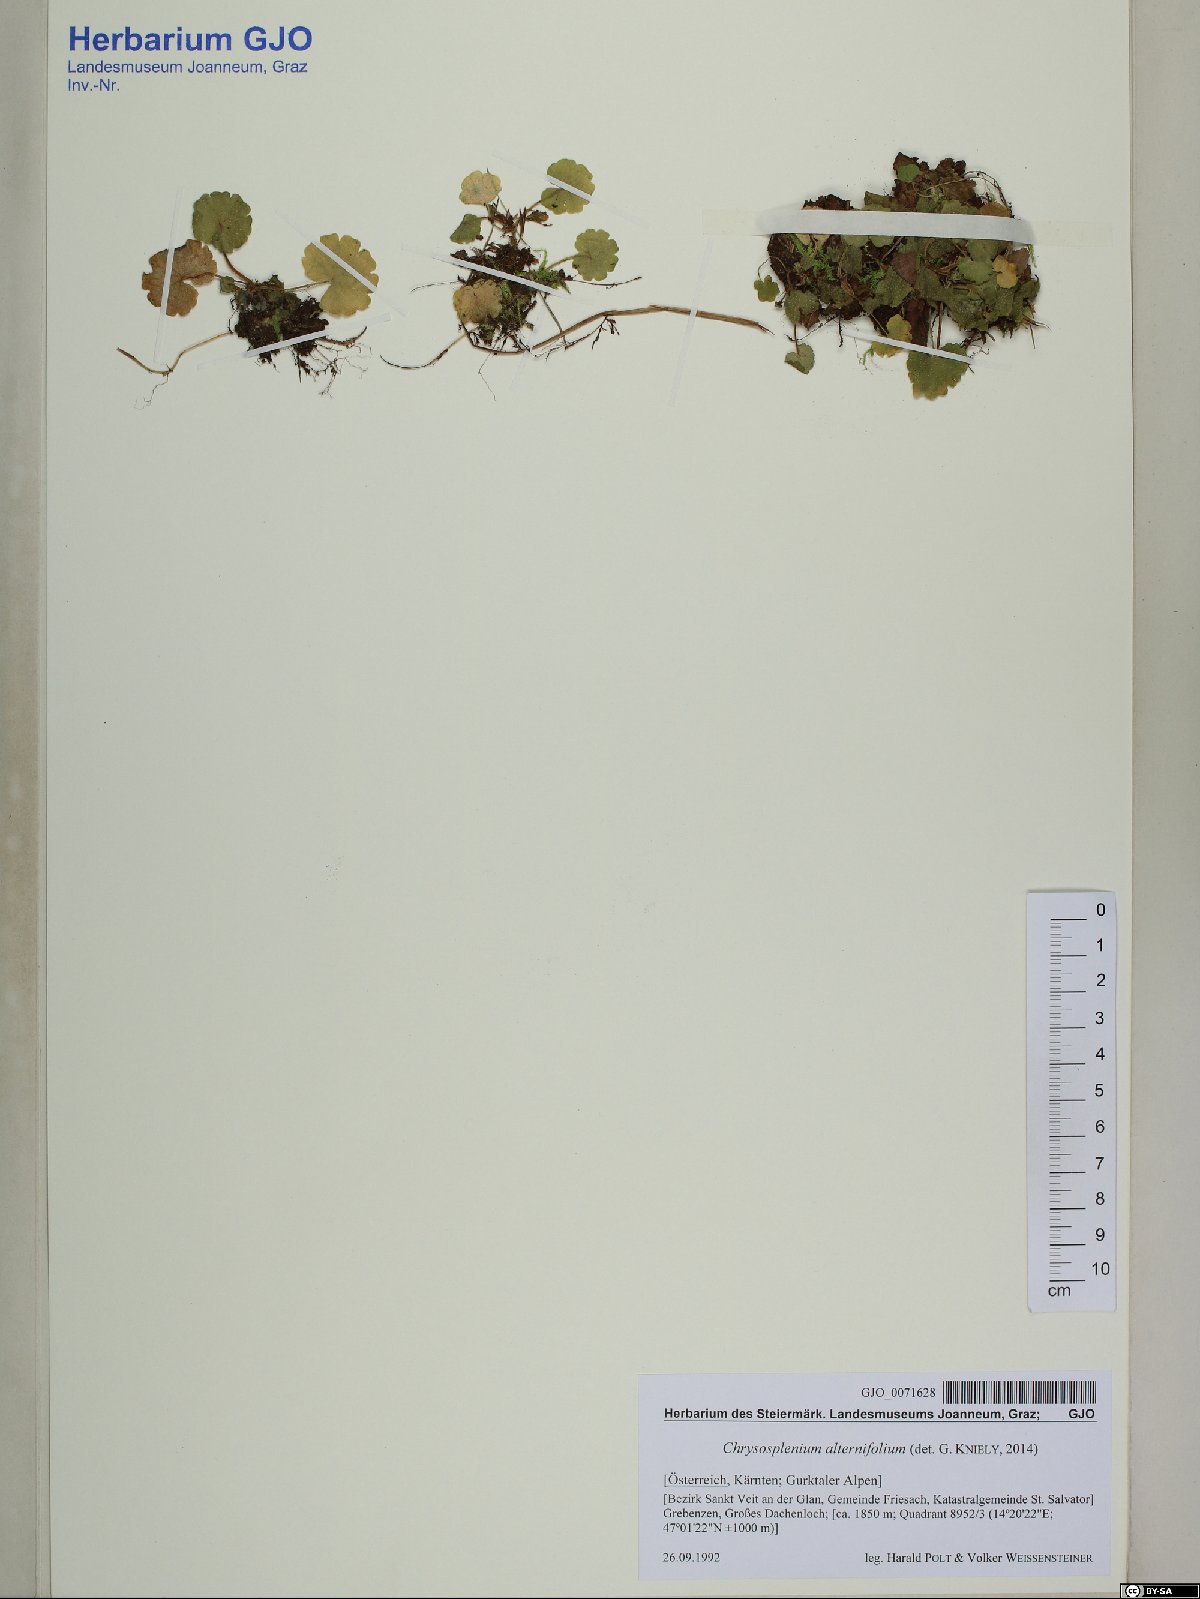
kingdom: Plantae
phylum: Tracheophyta
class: Magnoliopsida
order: Saxifragales
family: Saxifragaceae
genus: Chrysosplenium
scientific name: Chrysosplenium alternifolium
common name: Alternate-leaved golden-saxifrage
